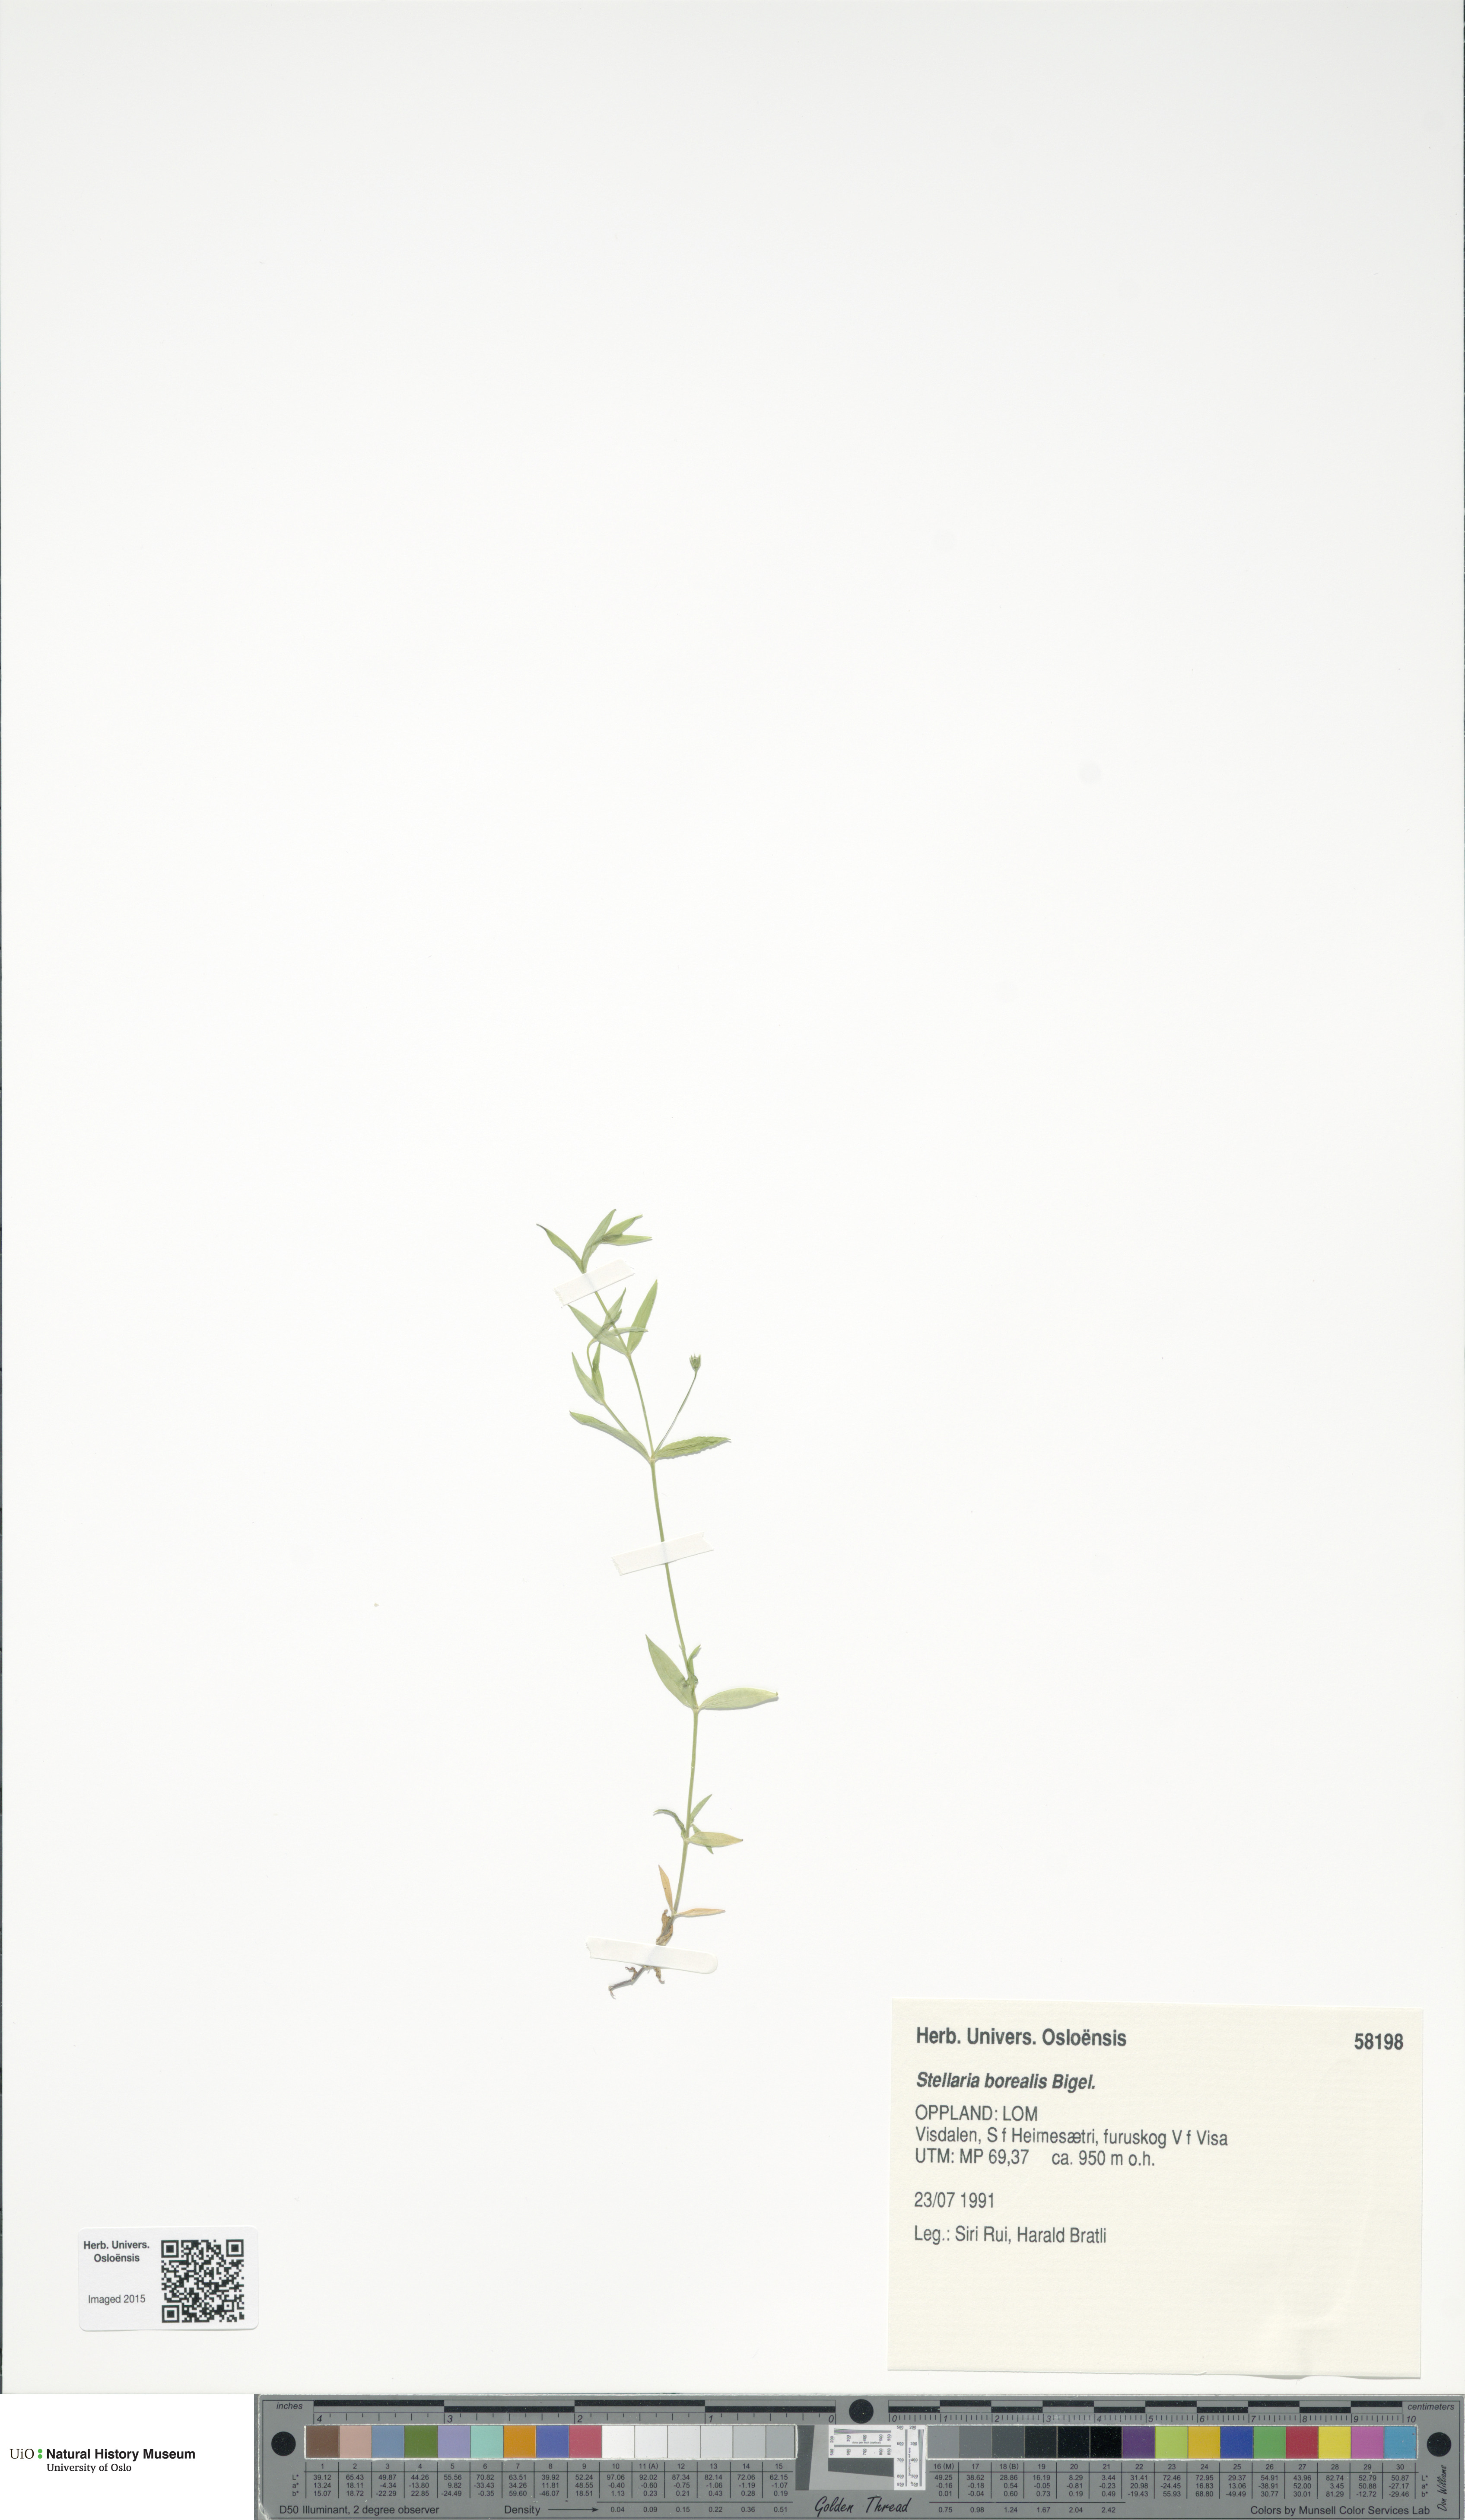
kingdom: Plantae
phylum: Tracheophyta
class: Magnoliopsida
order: Caryophyllales
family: Caryophyllaceae
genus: Stellaria
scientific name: Stellaria borealis
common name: Boreal starwort
